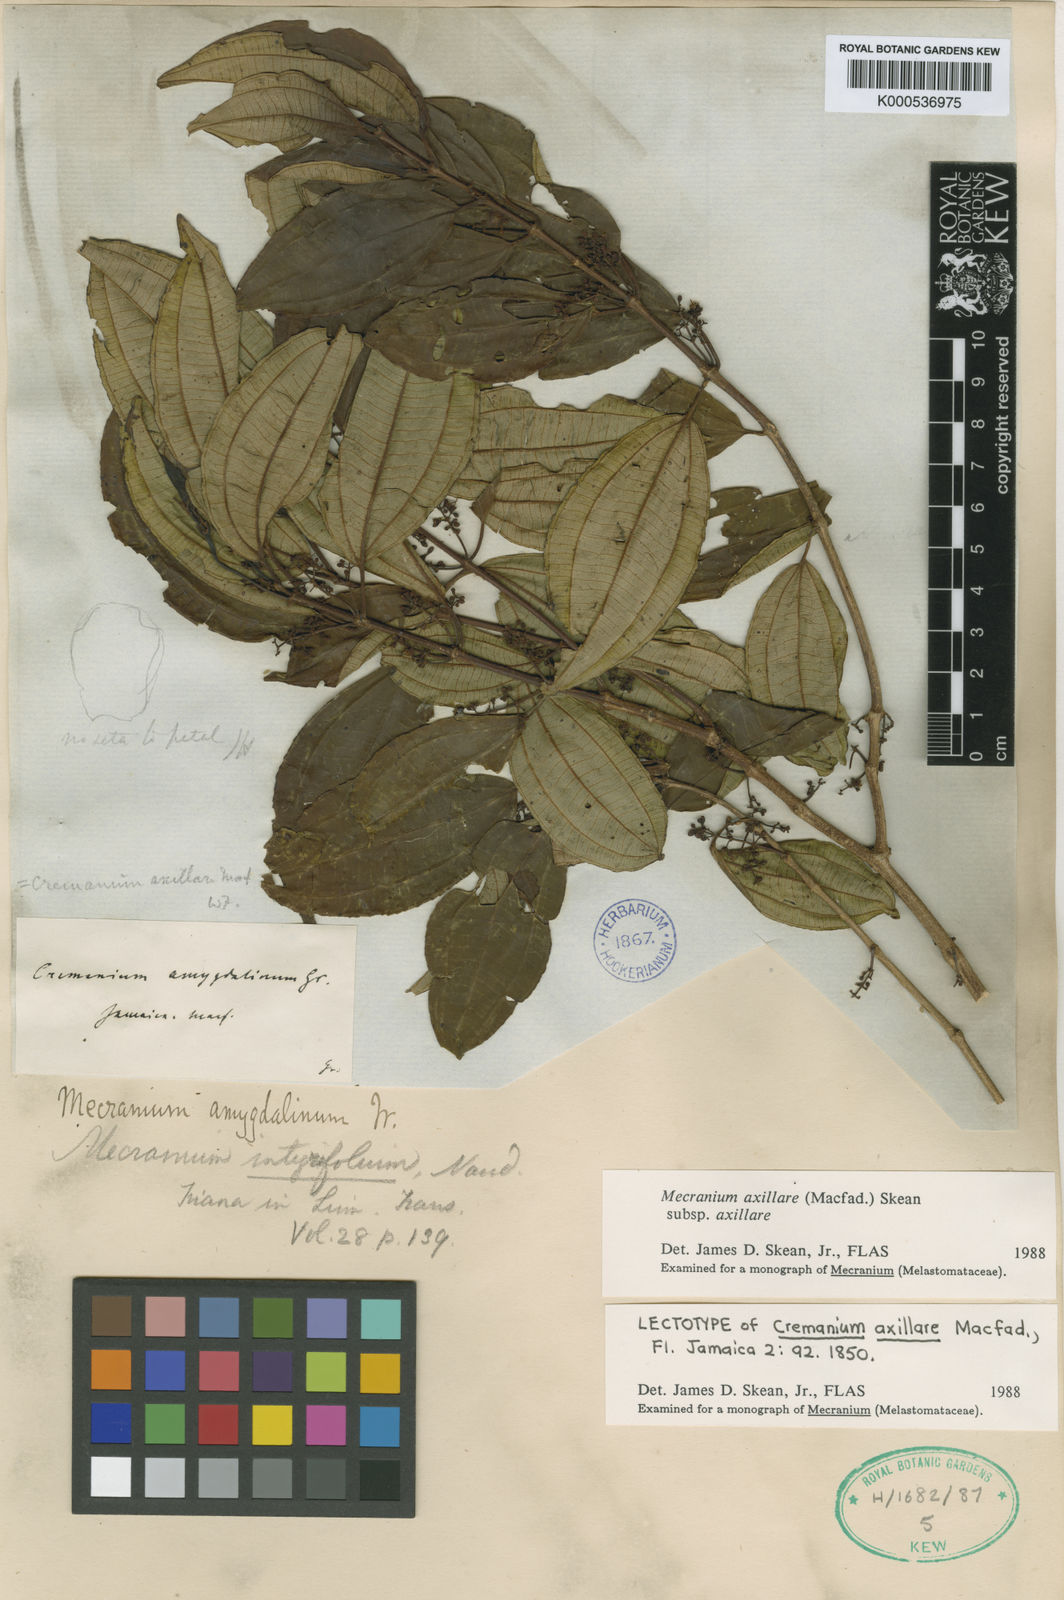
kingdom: Plantae
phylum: Tracheophyta
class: Magnoliopsida
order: Myrtales
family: Melastomataceae
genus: Miconia
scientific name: Miconia axillaris
